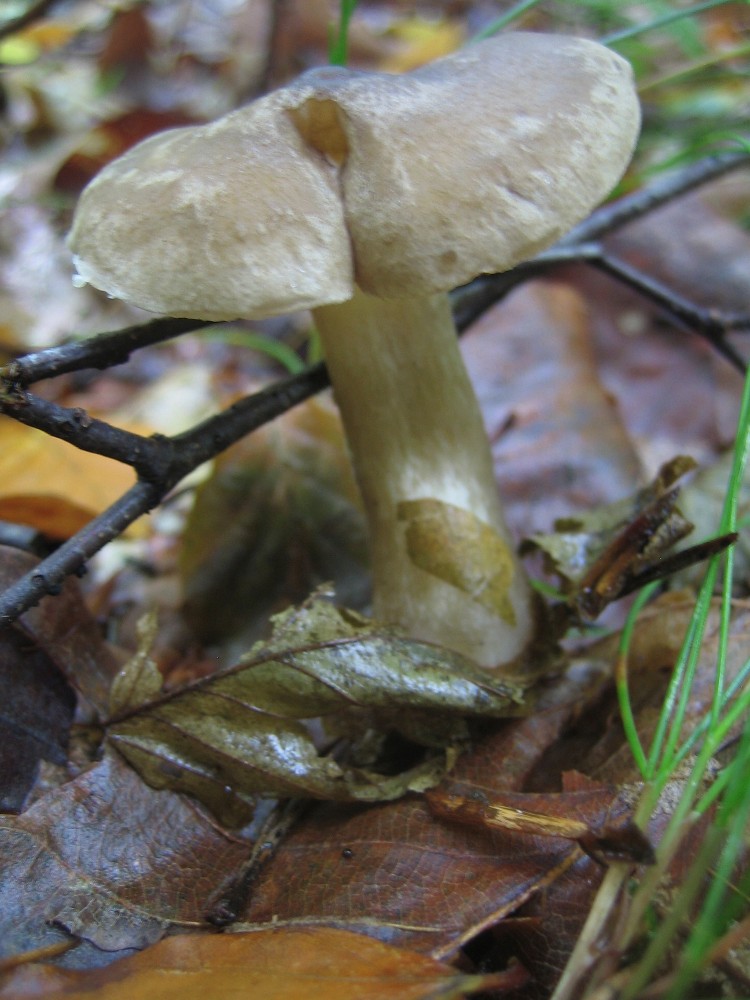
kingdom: Fungi
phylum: Basidiomycota
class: Agaricomycetes
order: Agaricales
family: Hygrophoraceae
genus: Ampulloclitocybe
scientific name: Ampulloclitocybe clavipes
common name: køllefod
